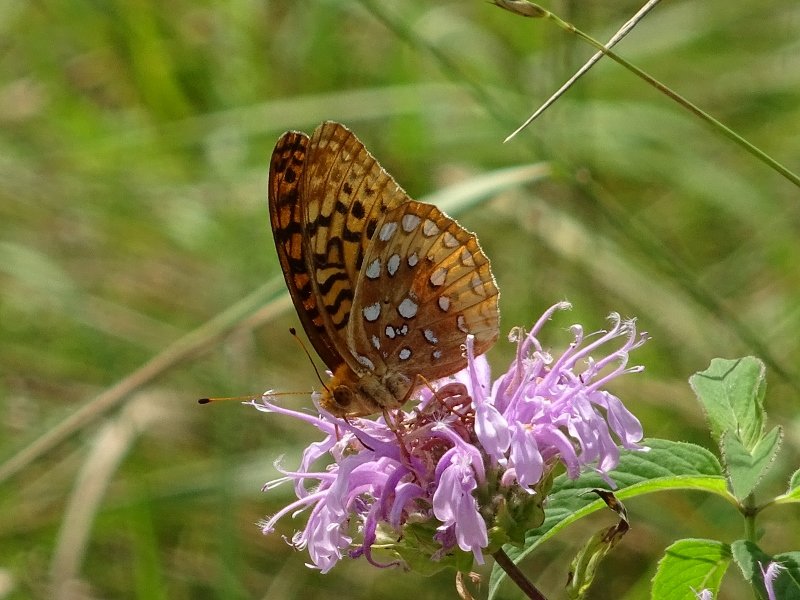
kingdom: Animalia
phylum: Arthropoda
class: Insecta
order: Lepidoptera
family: Nymphalidae
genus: Speyeria
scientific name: Speyeria cybele
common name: Great Spangled Fritillary
